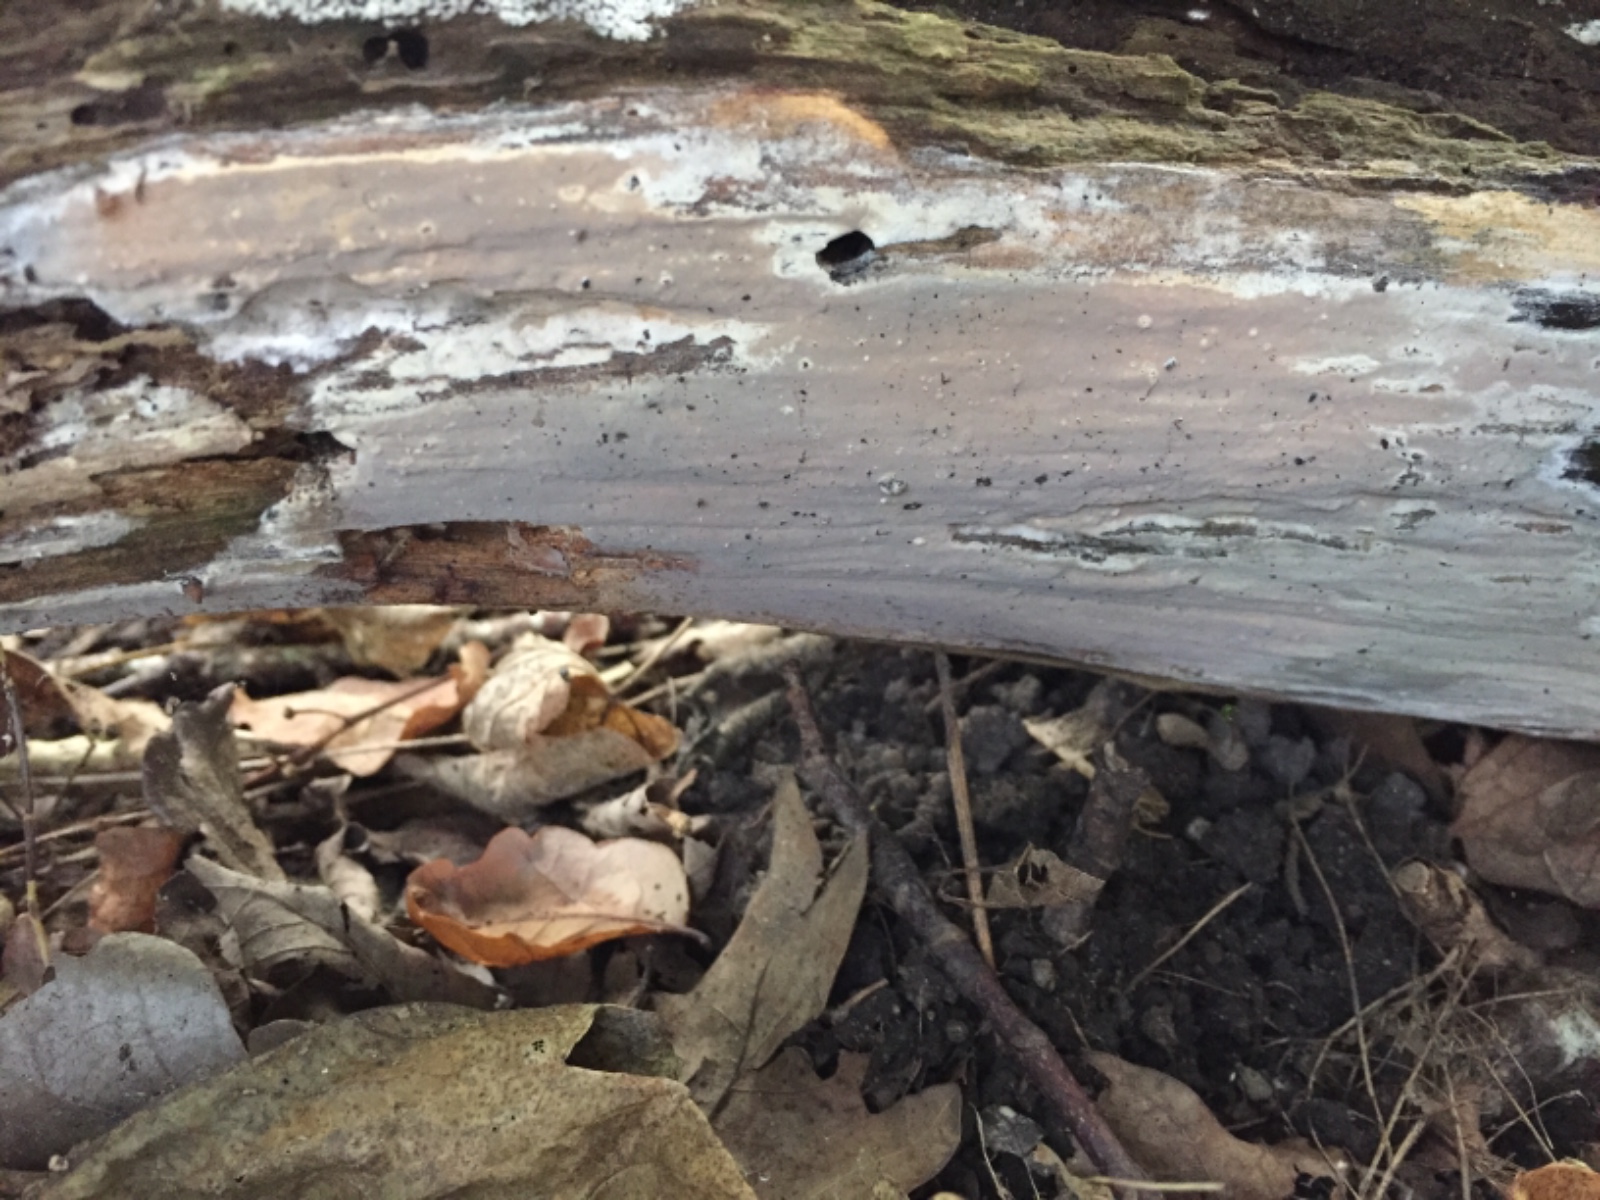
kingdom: Fungi
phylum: Basidiomycota
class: Agaricomycetes
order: Russulales
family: Peniophoraceae
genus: Scytinostroma
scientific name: Scytinostroma hemidichophyticum
